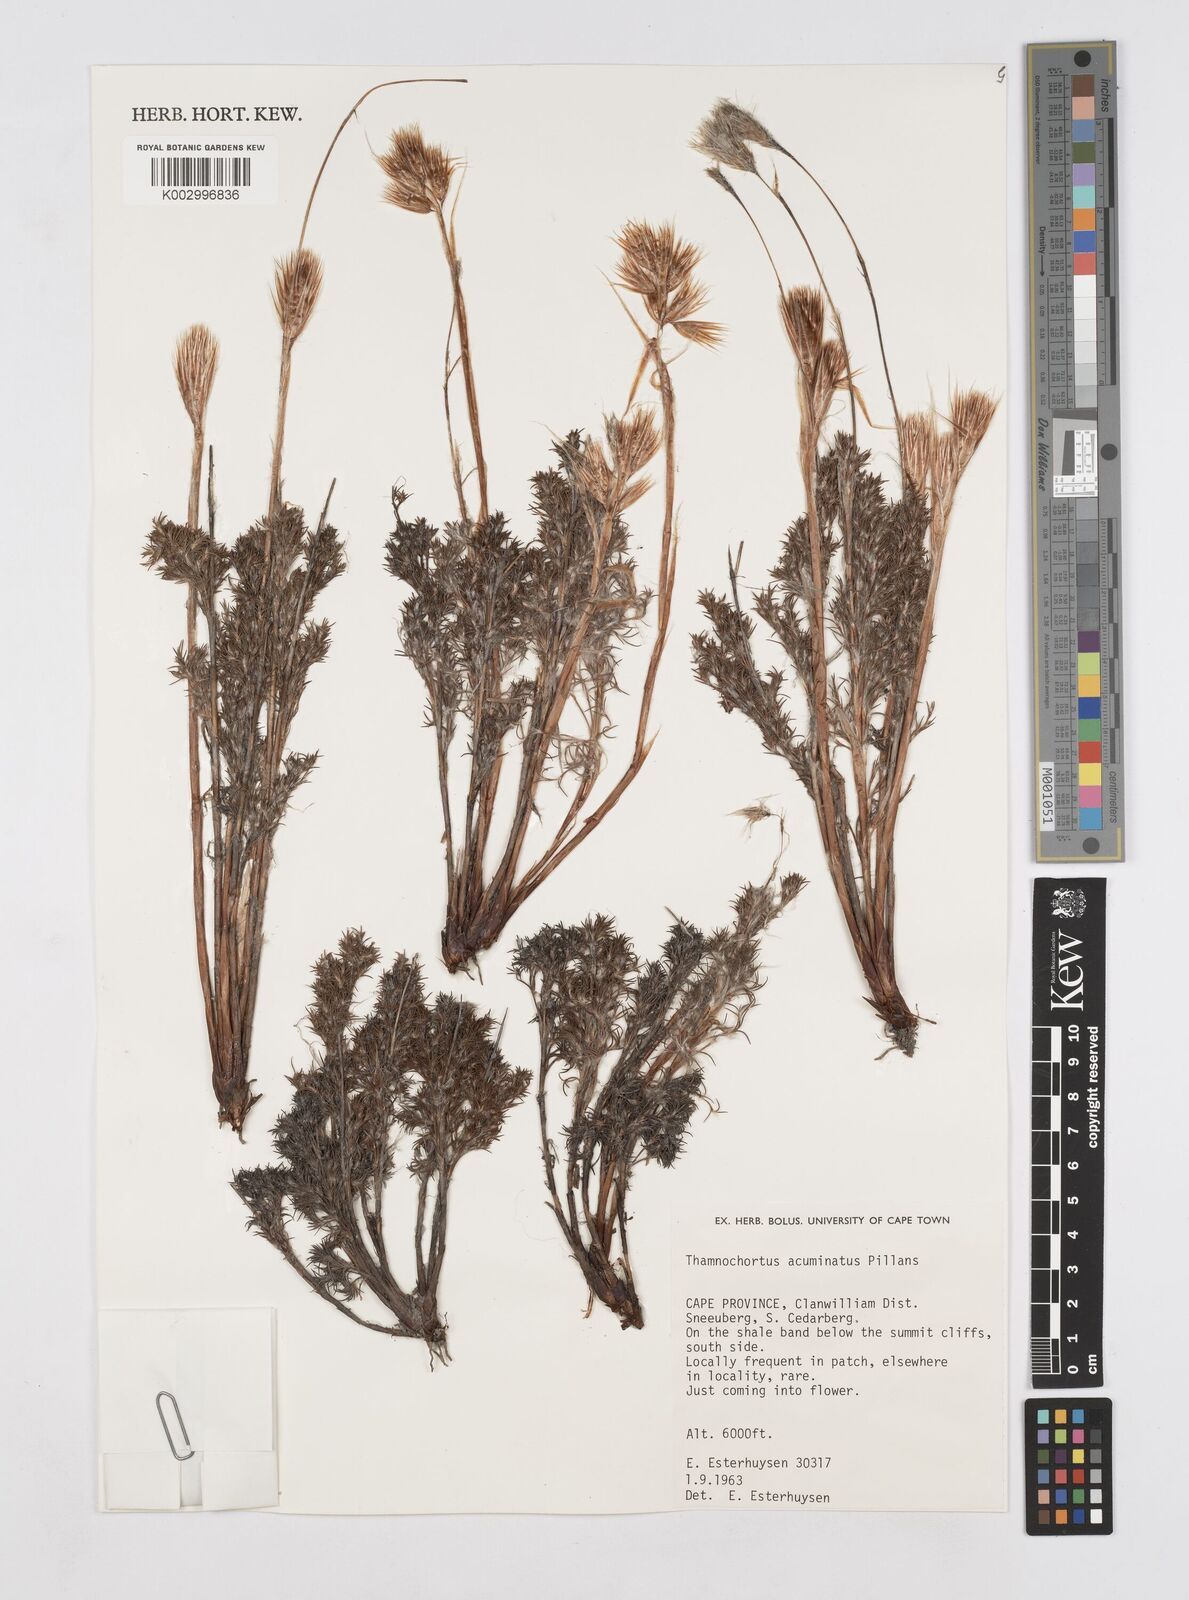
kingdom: Plantae
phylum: Tracheophyta
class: Liliopsida
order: Poales
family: Restionaceae
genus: Thamnochortus
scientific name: Thamnochortus acuminatus
